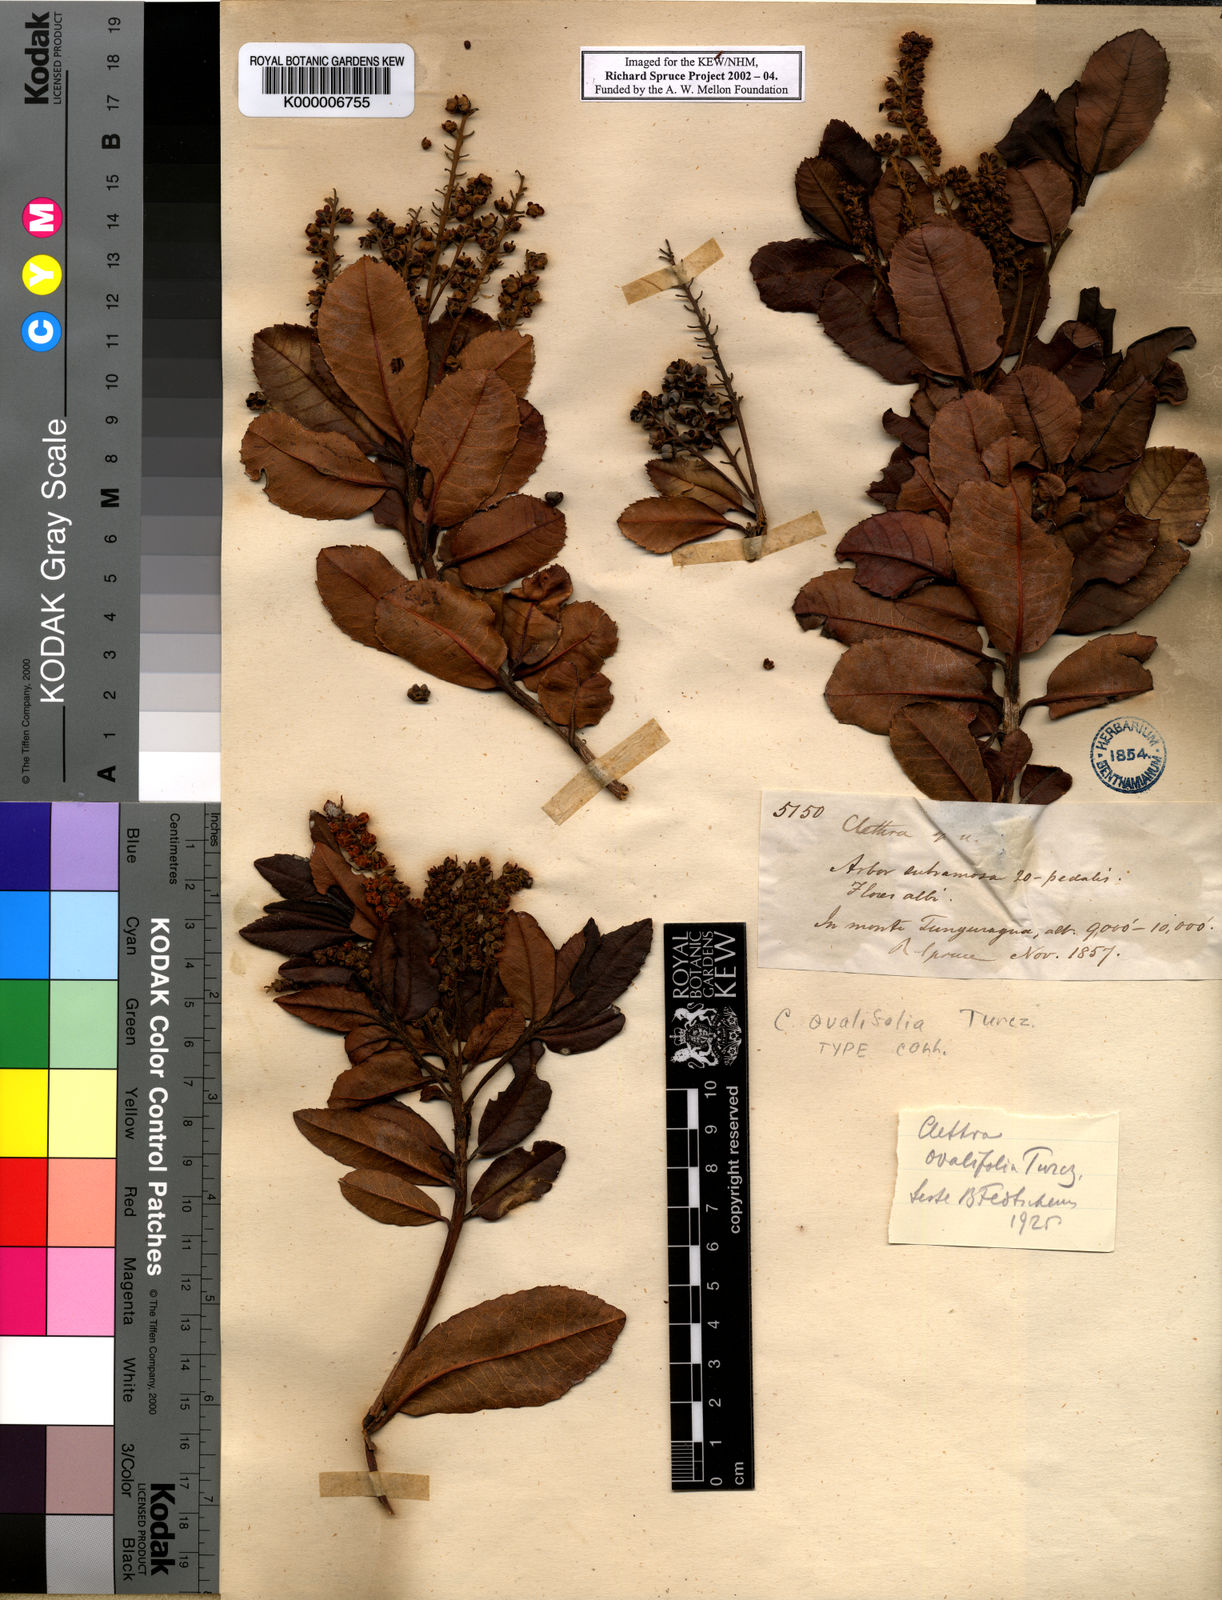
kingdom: Plantae
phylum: Tracheophyta
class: Magnoliopsida
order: Ericales
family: Clethraceae
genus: Clethra
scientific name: Clethra ovalifolia
